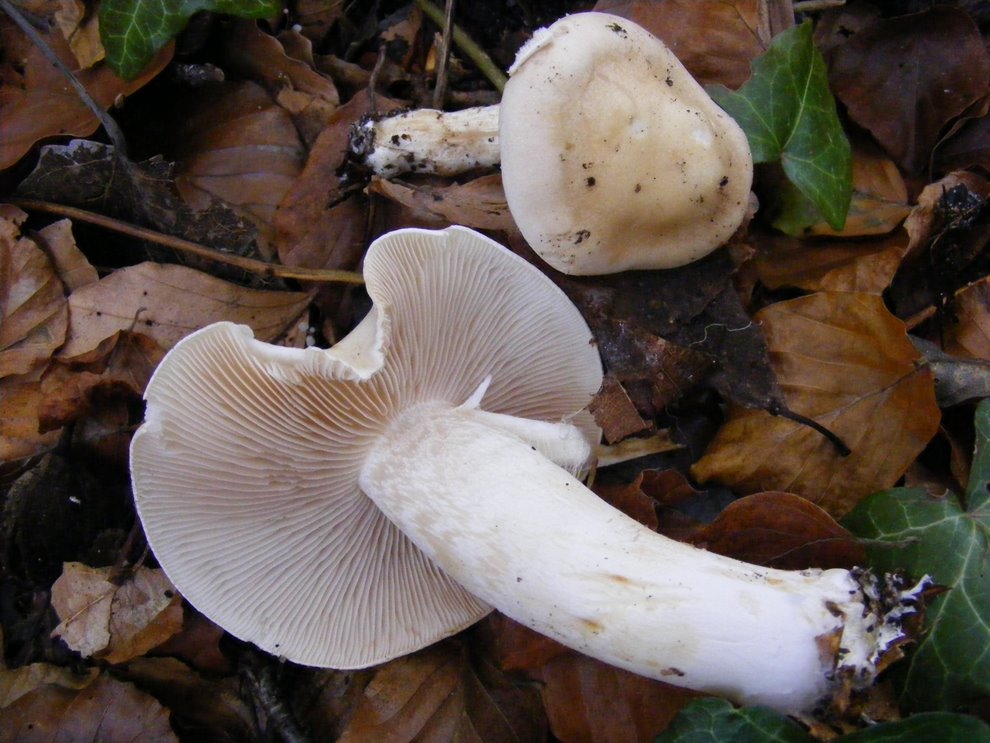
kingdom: Fungi
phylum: Basidiomycota
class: Agaricomycetes
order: Agaricales
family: Hymenogastraceae
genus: Hebeloma
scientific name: Hebeloma leucosarx
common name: højstokket tåreblad
